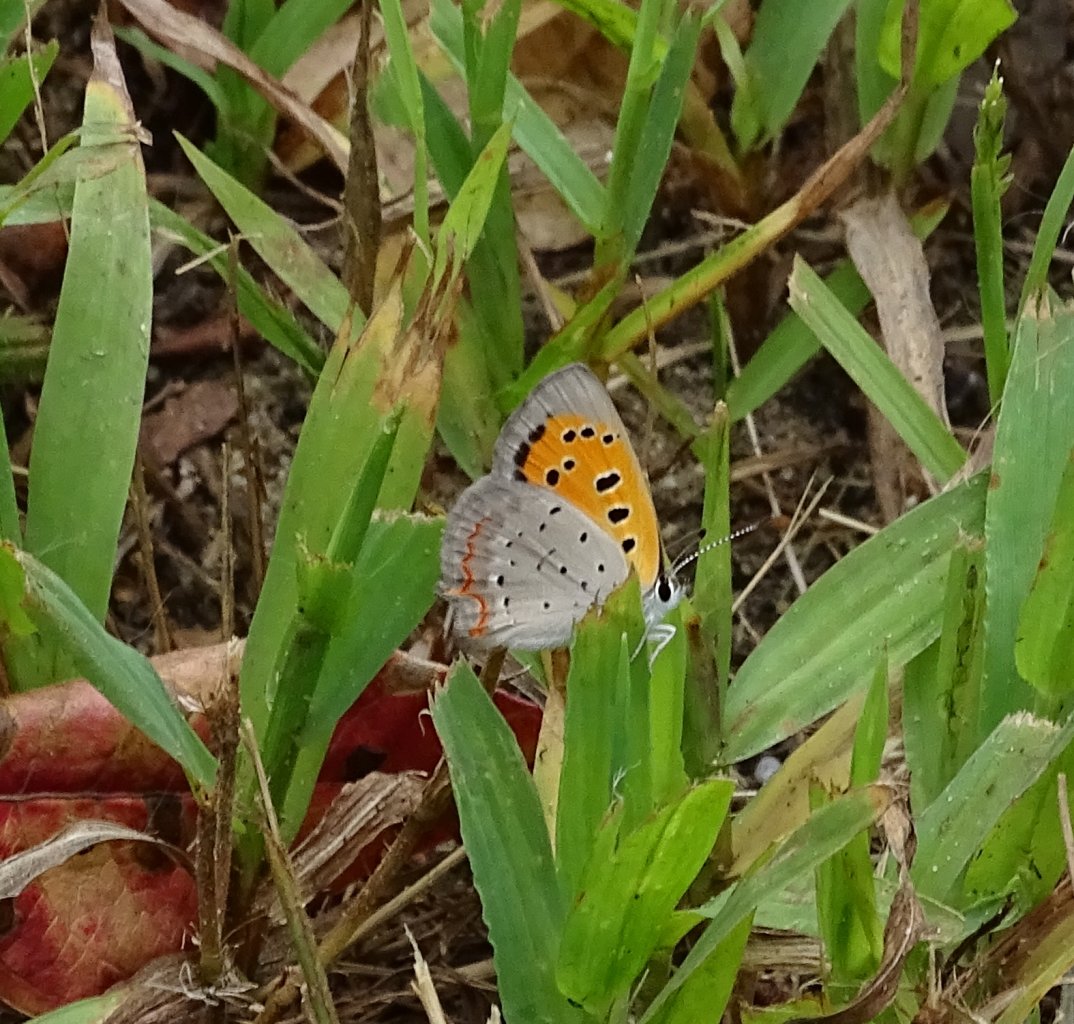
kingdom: Animalia
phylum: Arthropoda
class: Insecta
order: Lepidoptera
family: Lycaenidae
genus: Lycaena
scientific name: Lycaena phlaeas
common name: American Copper
